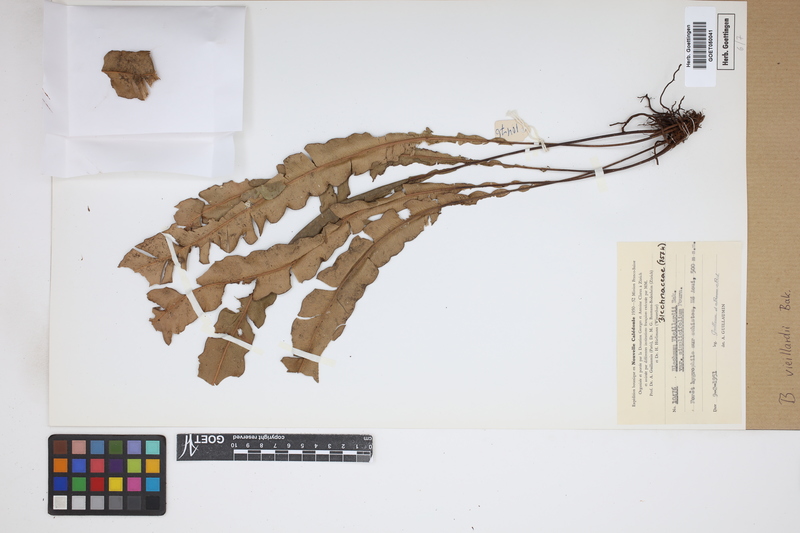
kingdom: Plantae
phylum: Tracheophyta
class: Polypodiopsida
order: Polypodiales
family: Blechnaceae
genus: Austroblechnum
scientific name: Austroblechnum vieillardii
